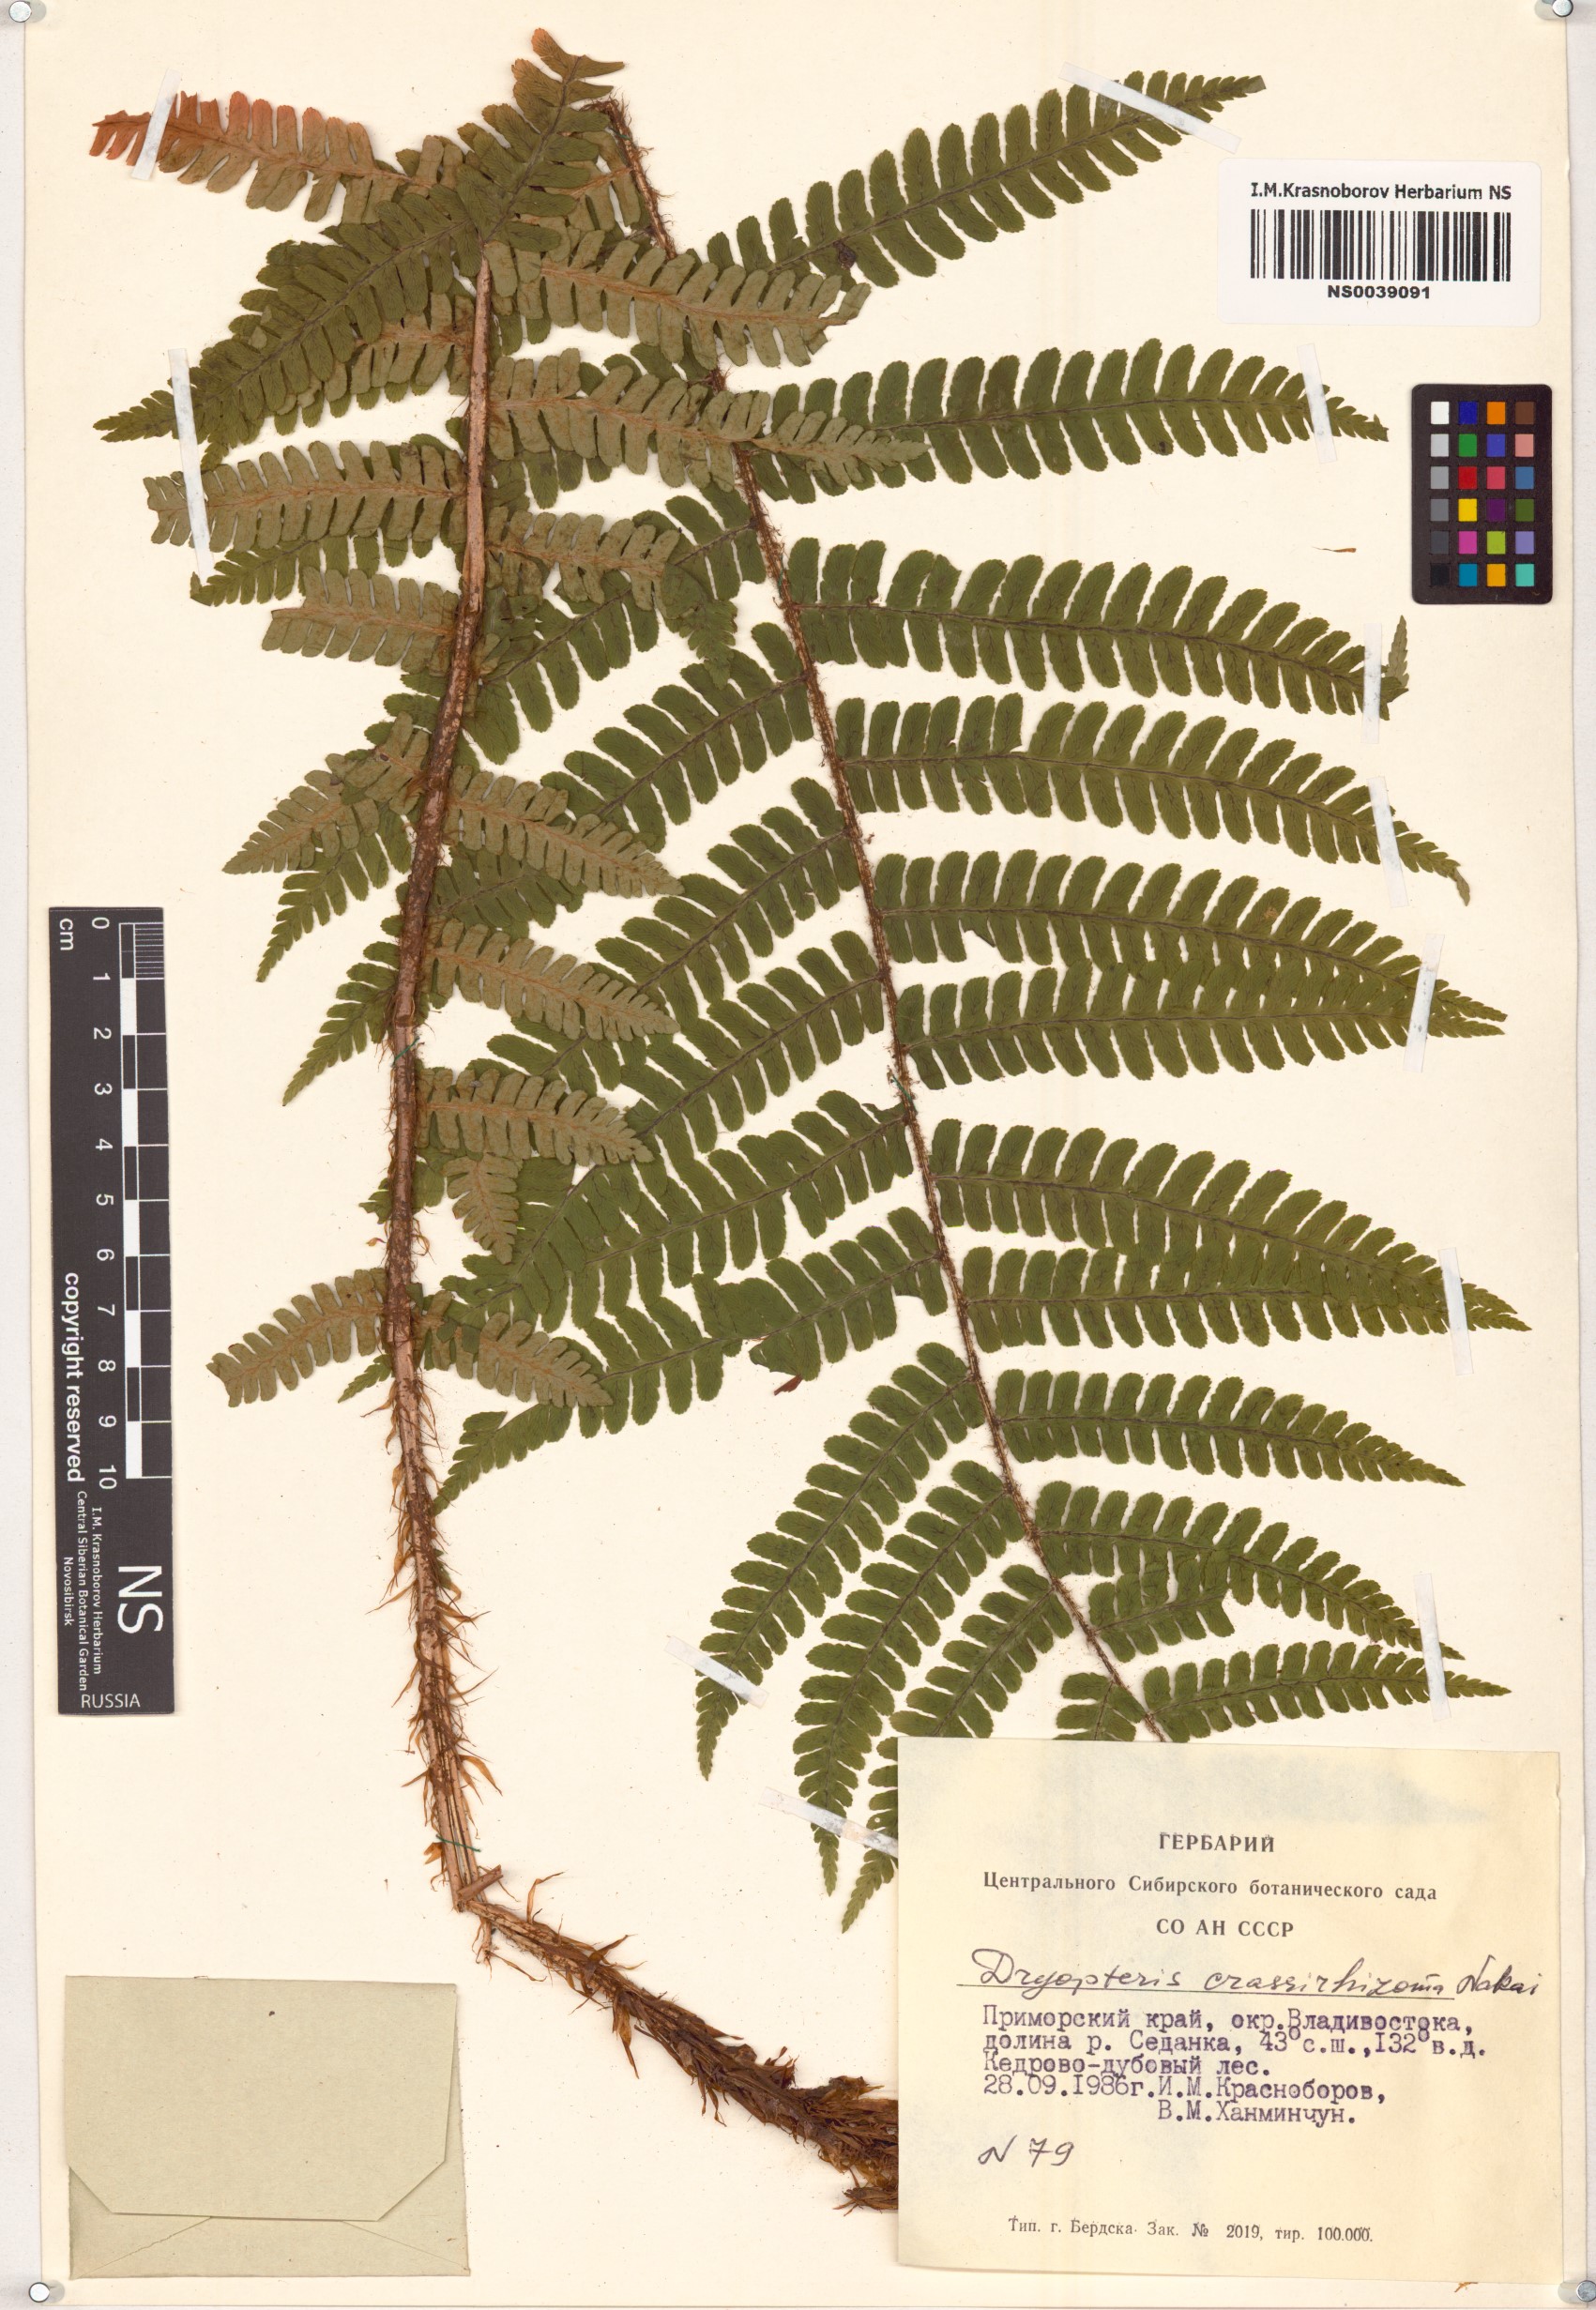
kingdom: Plantae
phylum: Tracheophyta
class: Polypodiopsida
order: Polypodiales
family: Dryopteridaceae
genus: Dryopteris
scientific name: Dryopteris crassirhizoma
